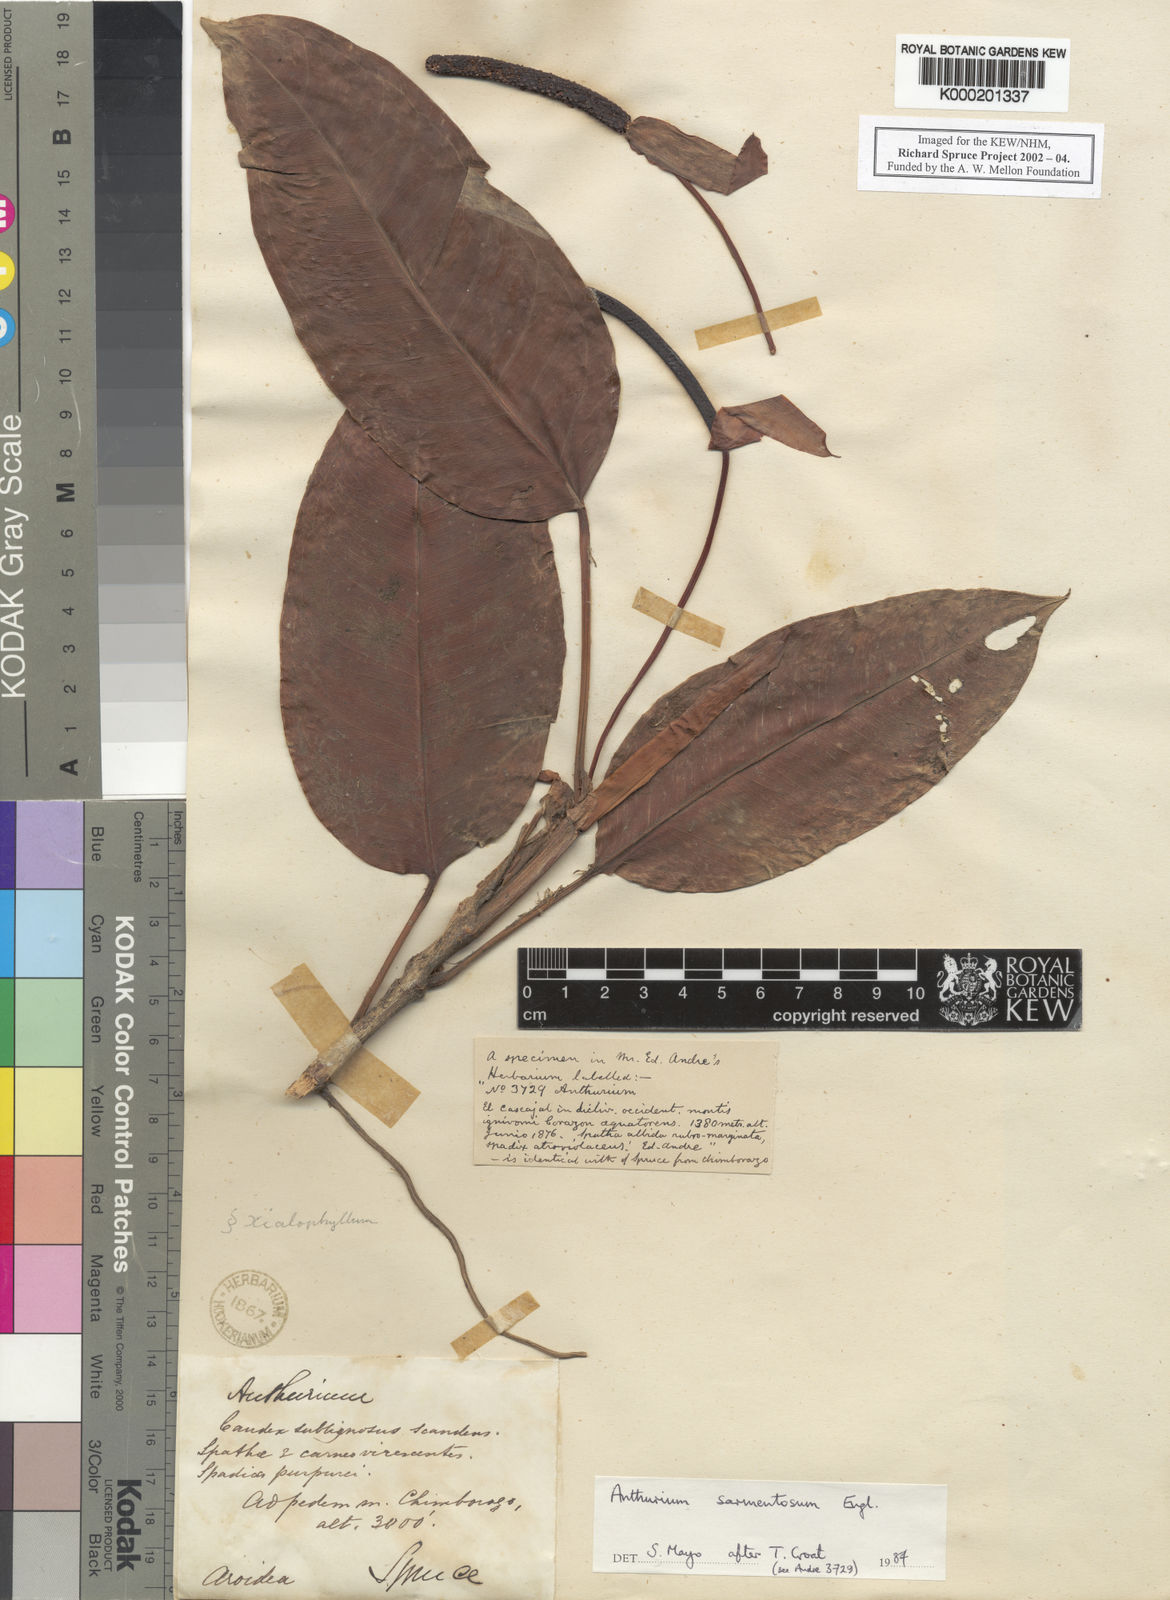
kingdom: Plantae
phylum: Tracheophyta
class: Liliopsida
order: Alismatales
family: Araceae
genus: Anthurium
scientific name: Anthurium sarmentosum
